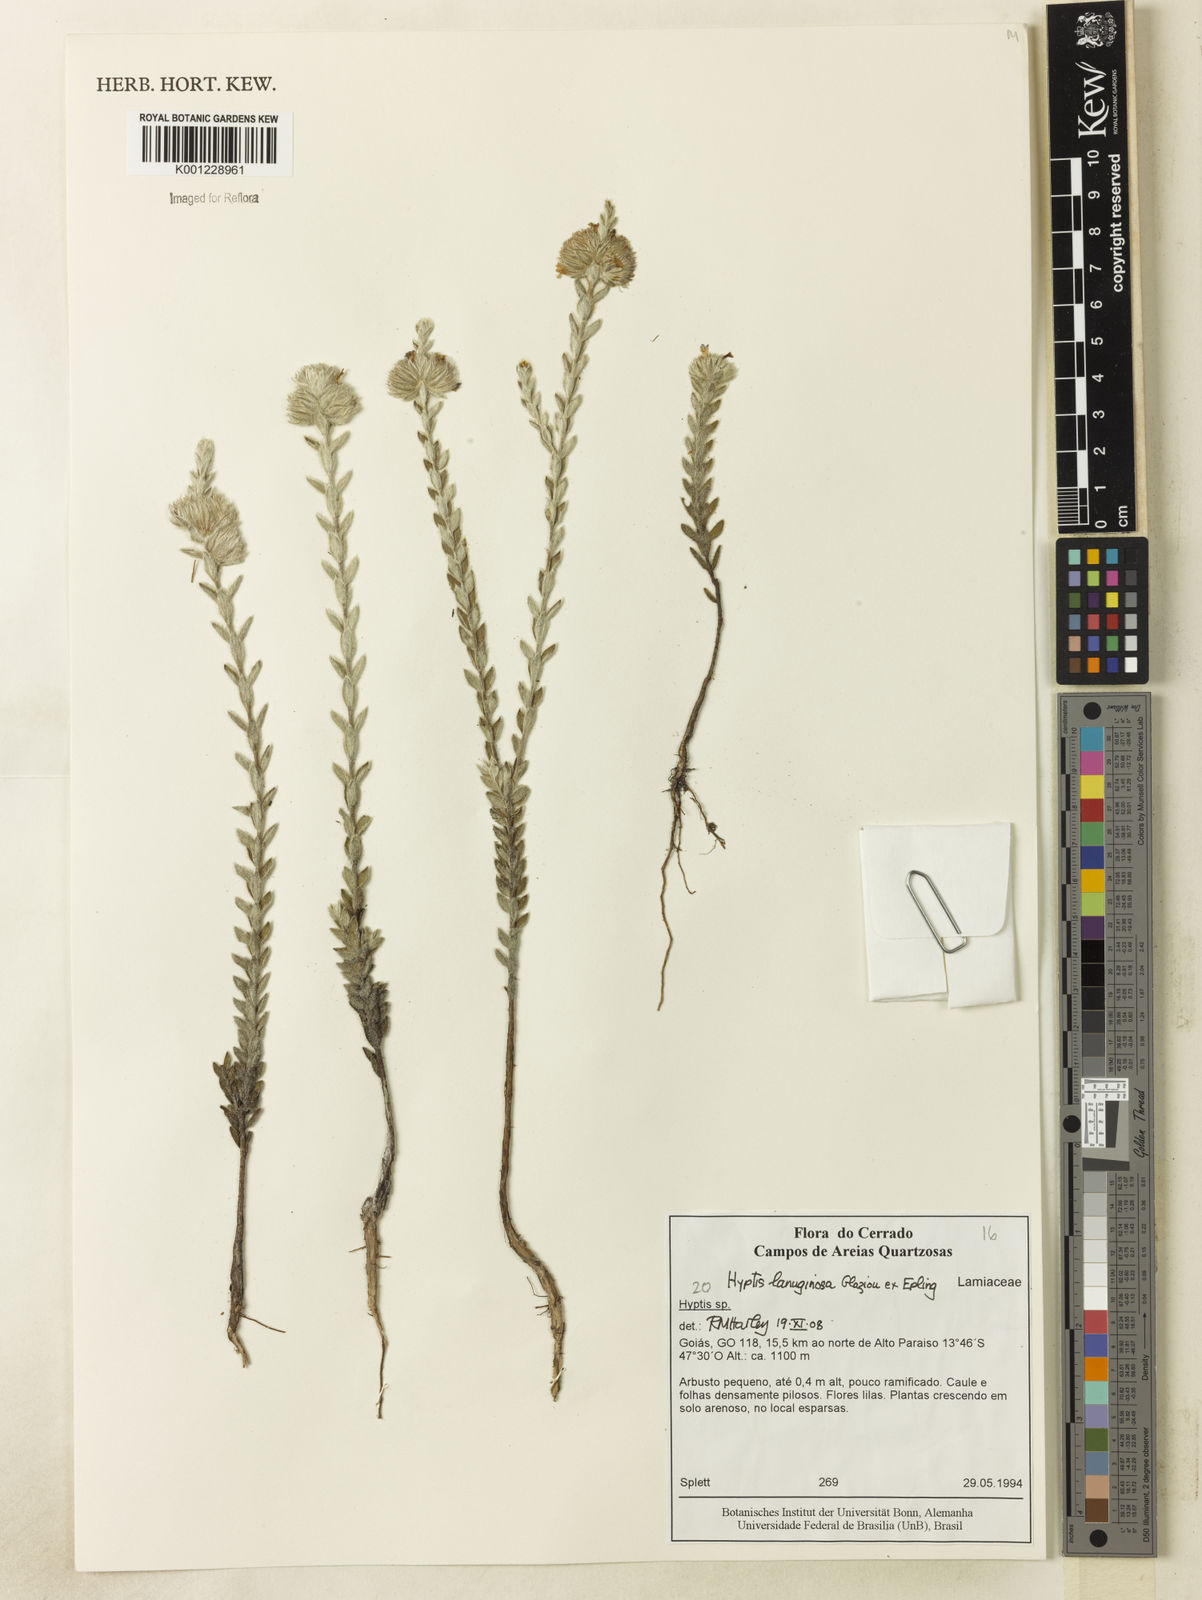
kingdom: Plantae
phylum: Tracheophyta
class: Magnoliopsida
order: Lamiales
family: Lamiaceae
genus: Hyptis
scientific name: Hyptis lanuginosa
